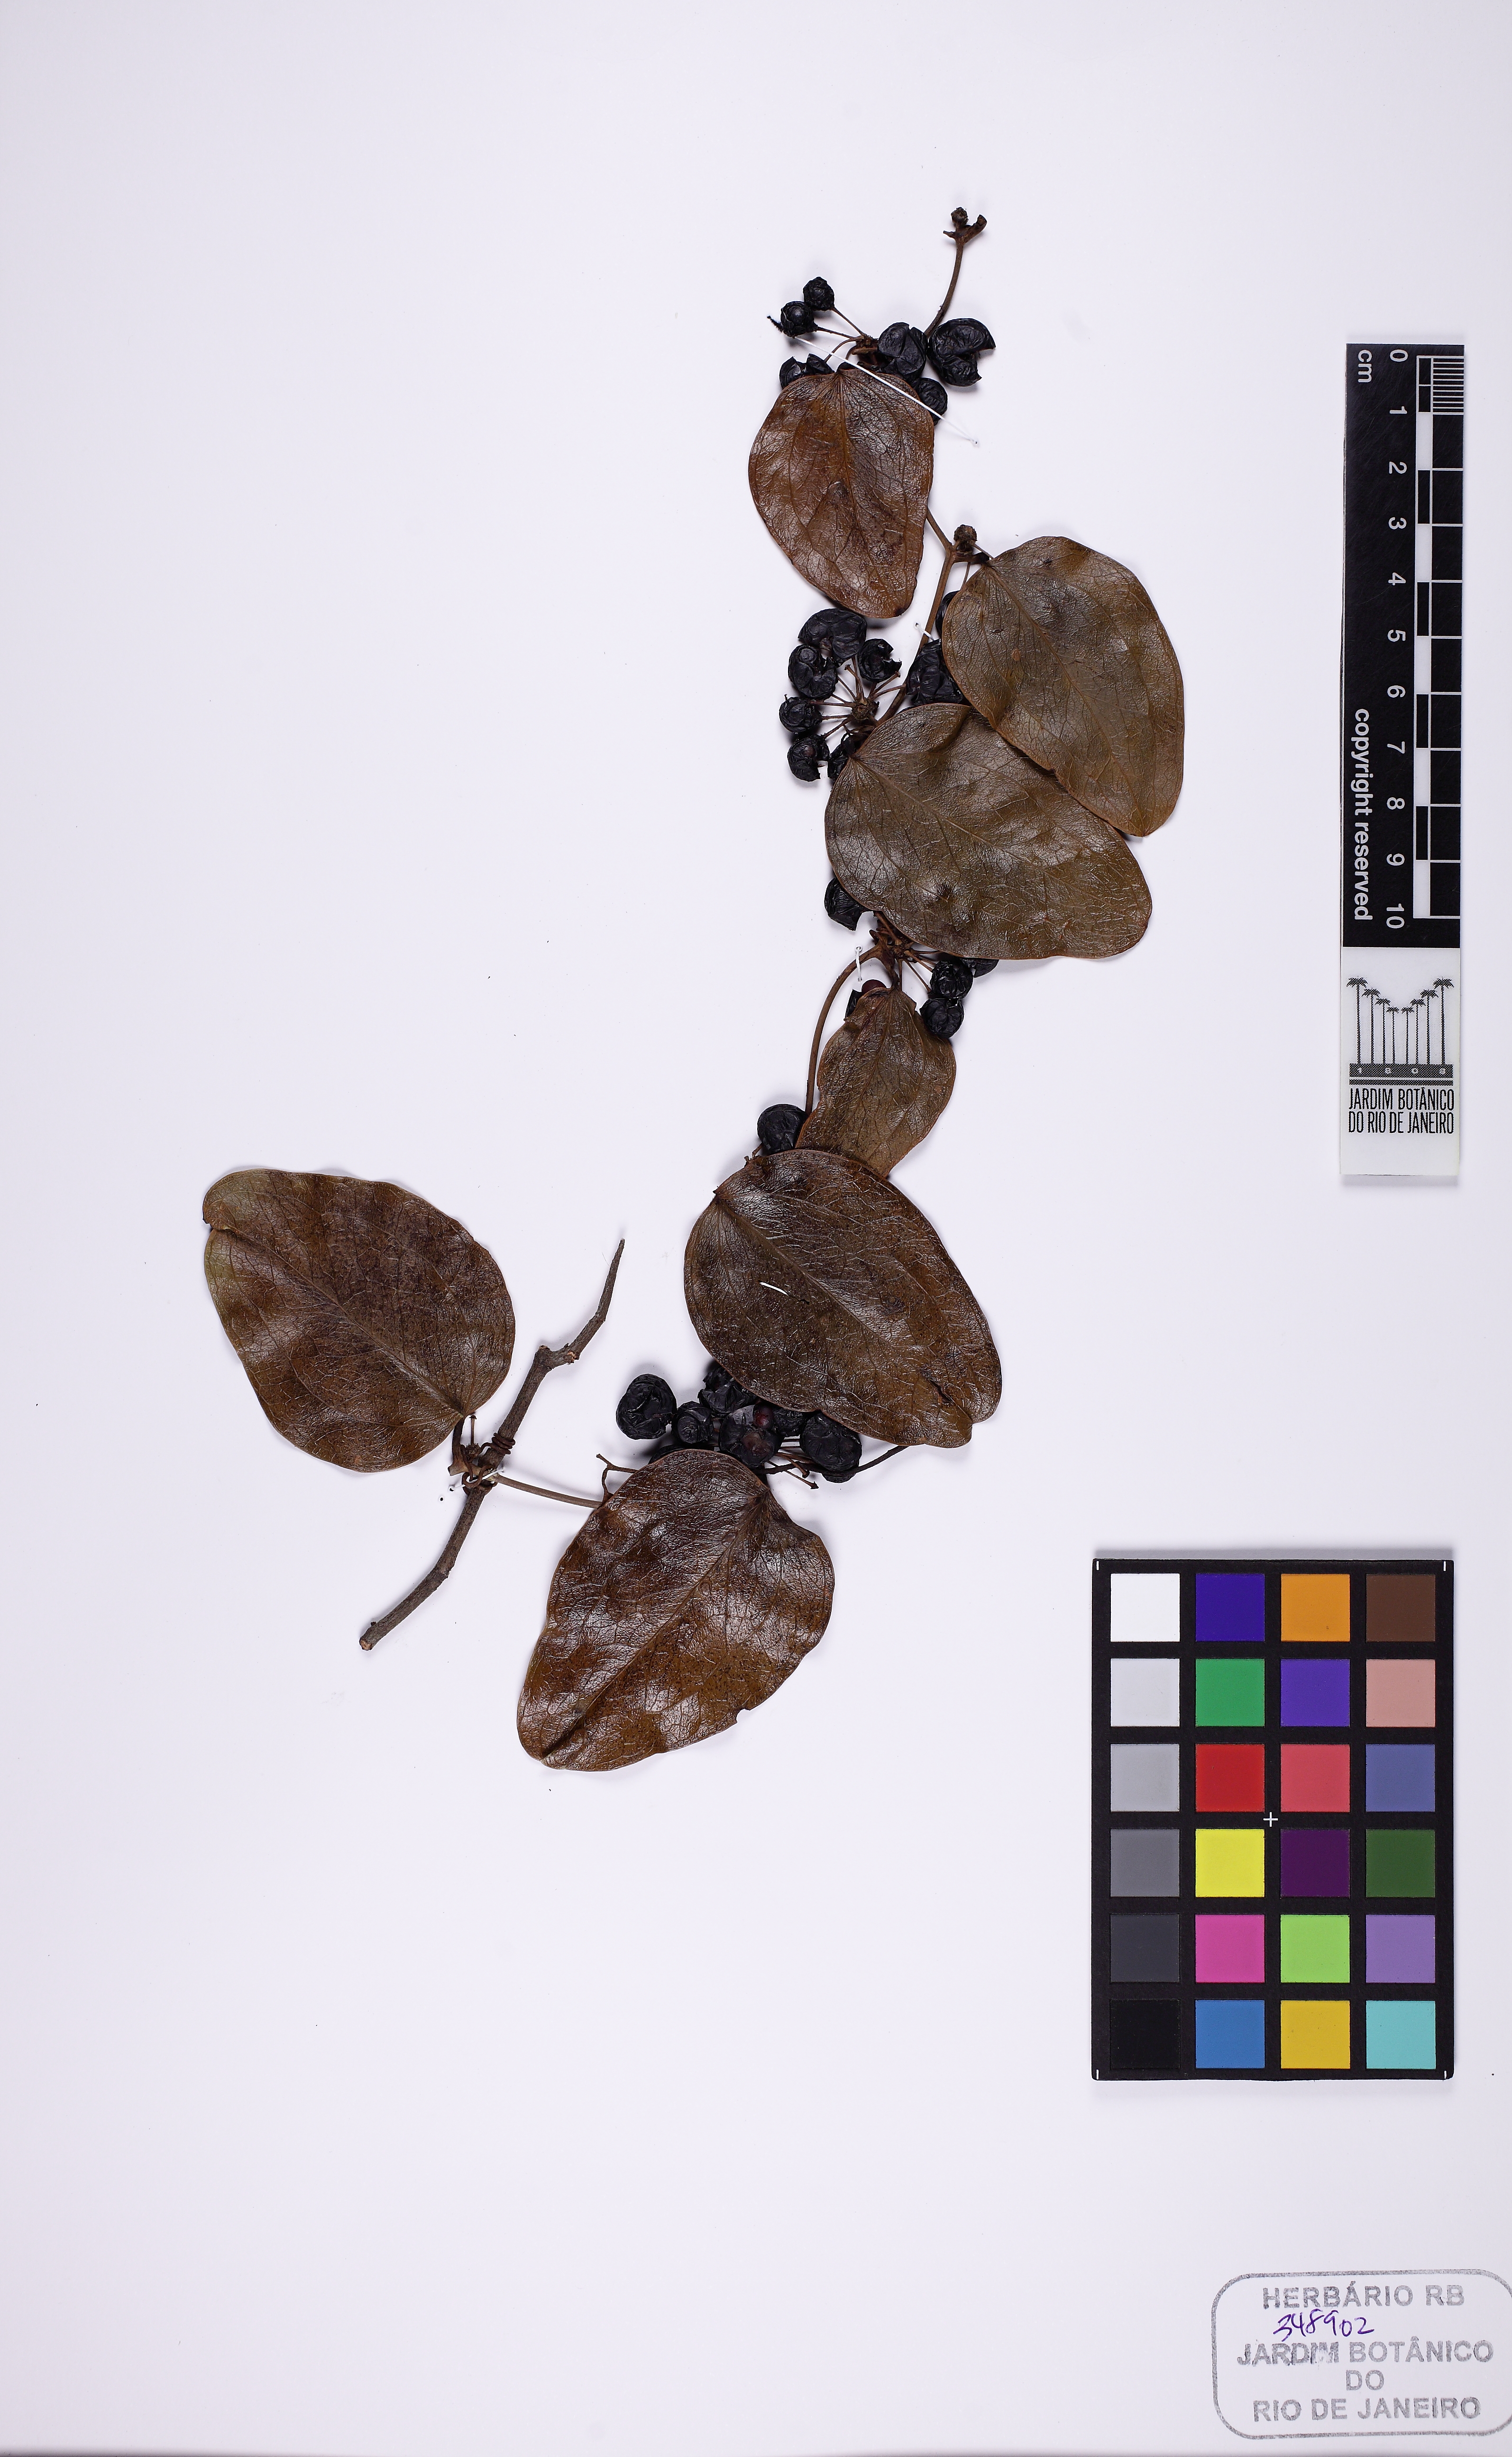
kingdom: Plantae
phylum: Tracheophyta
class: Liliopsida
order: Liliales
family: Smilacaceae
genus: Smilax
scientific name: Smilax rufescens
